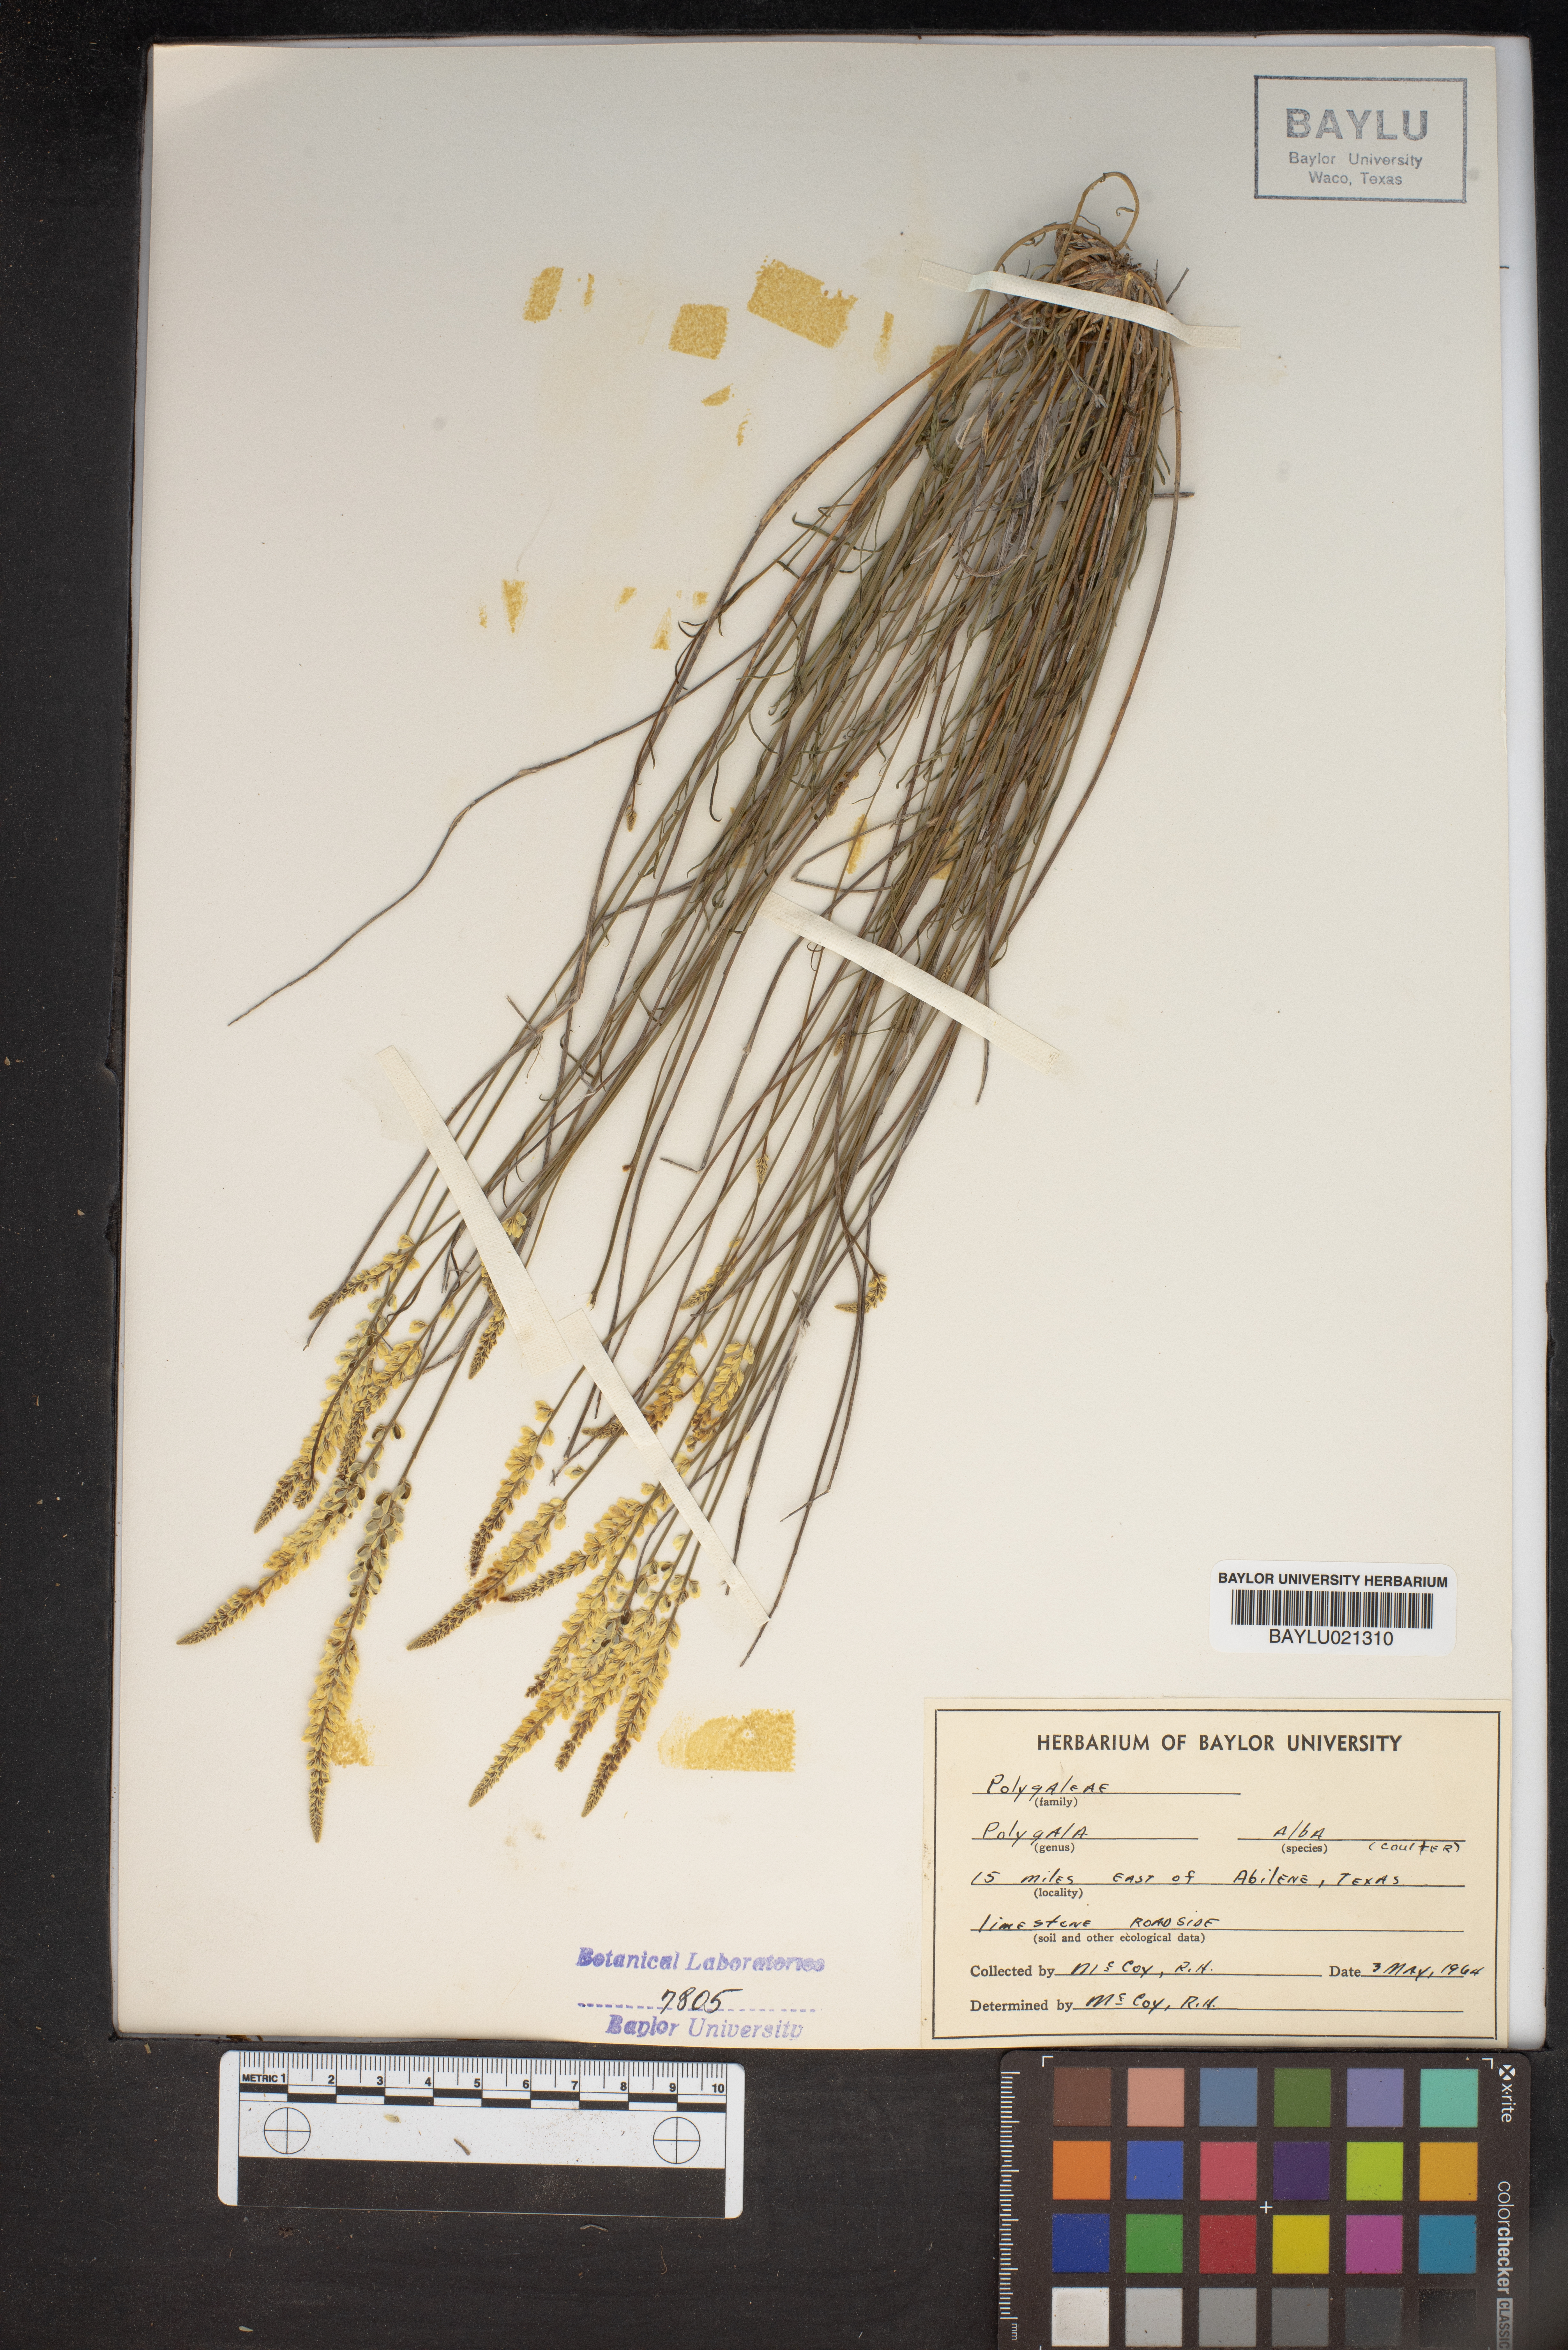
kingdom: Plantae
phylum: Tracheophyta
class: Magnoliopsida
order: Fabales
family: Polygalaceae
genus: Polygala
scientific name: Polygala alba
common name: White milkwort
